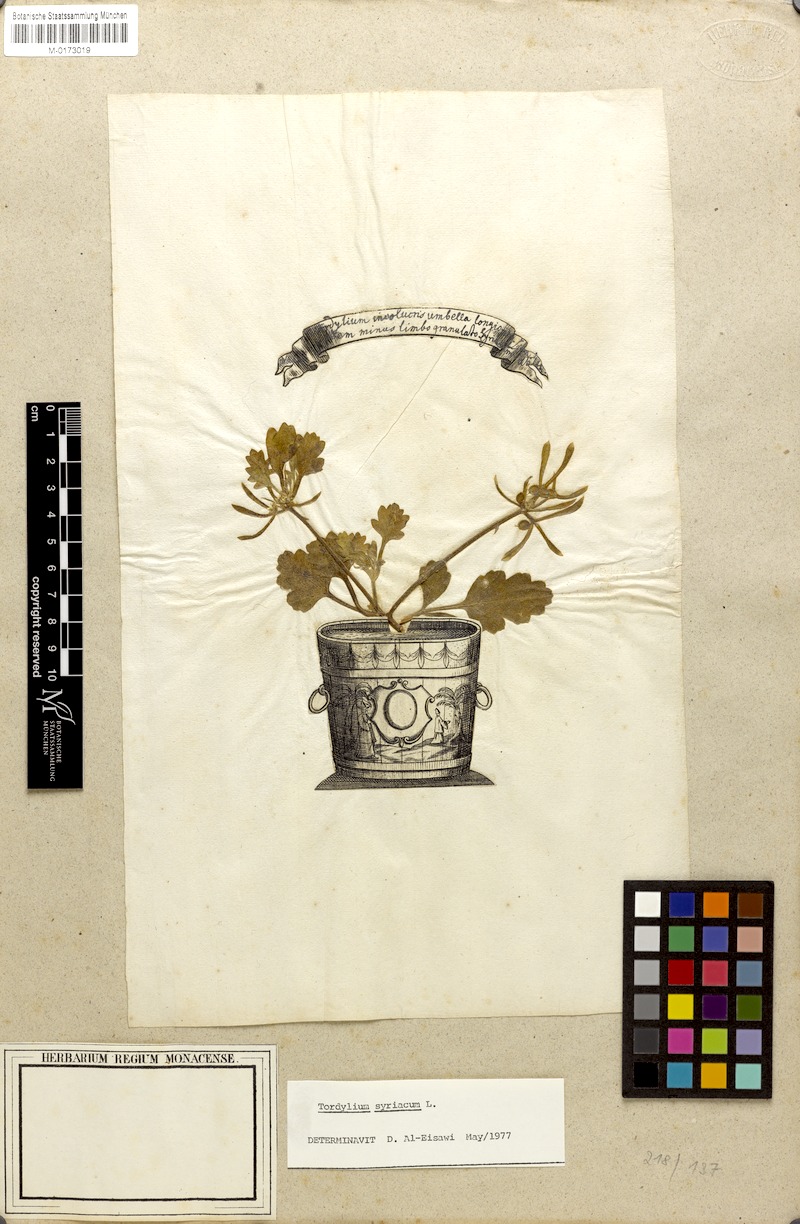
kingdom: Plantae
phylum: Tracheophyta
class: Magnoliopsida
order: Apiales
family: Apiaceae
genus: Tordylium
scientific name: Tordylium syriacum
